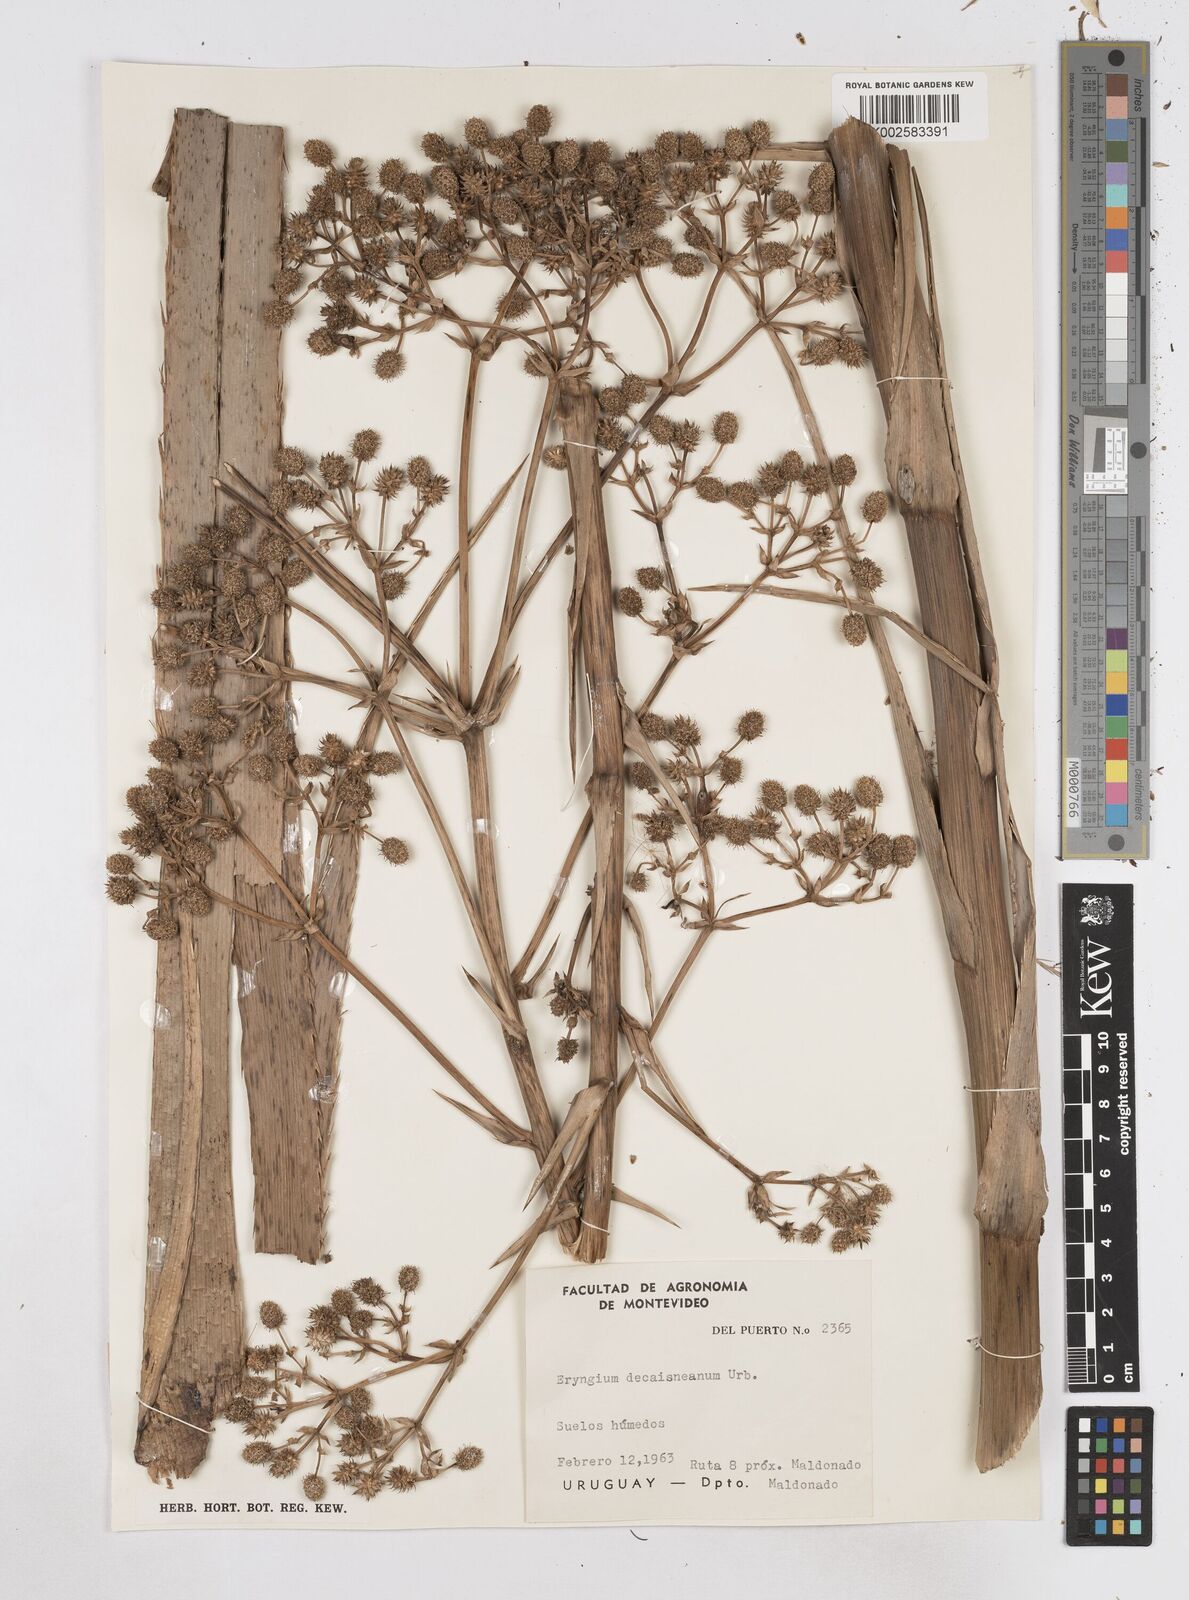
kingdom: Plantae
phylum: Tracheophyta
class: Magnoliopsida
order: Apiales
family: Apiaceae
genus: Eryngium
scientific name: Eryngium pandanifolium
